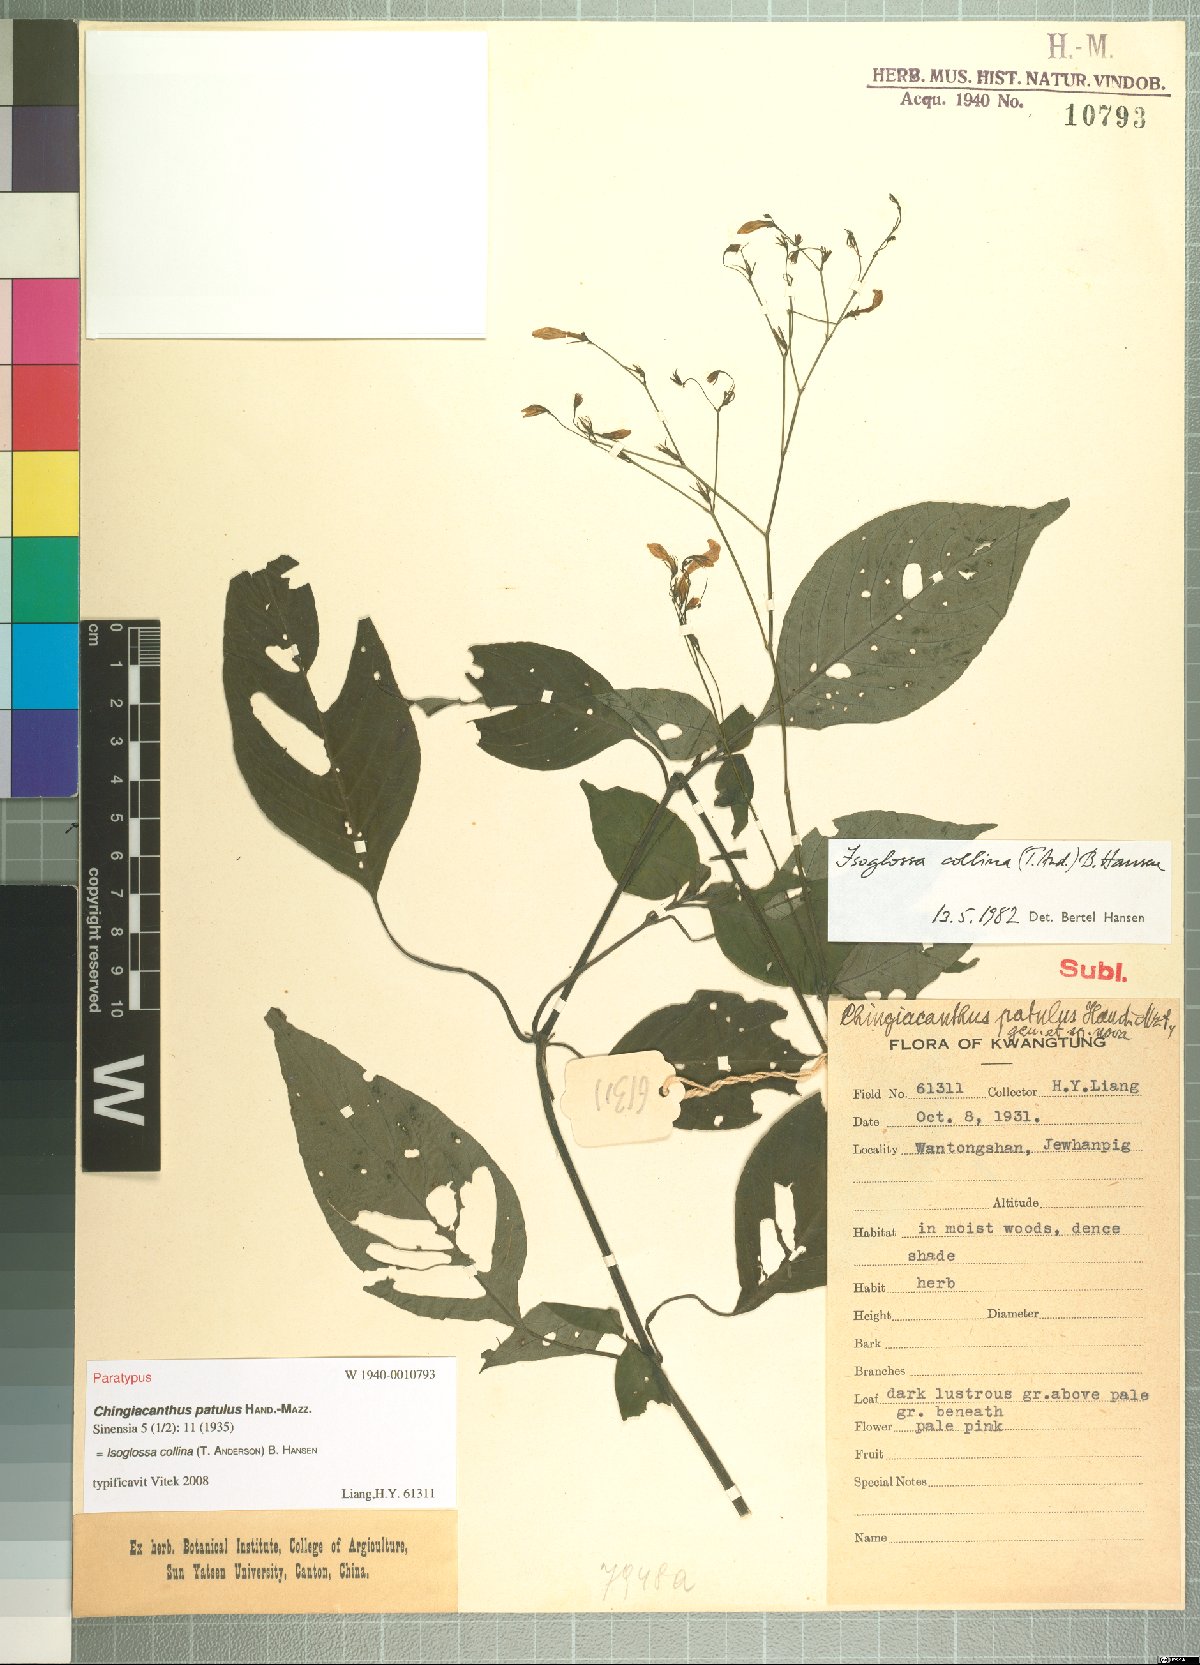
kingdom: Plantae
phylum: Tracheophyta
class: Magnoliopsida
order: Lamiales
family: Acanthaceae
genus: Isoglossa
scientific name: Isoglossa collina
